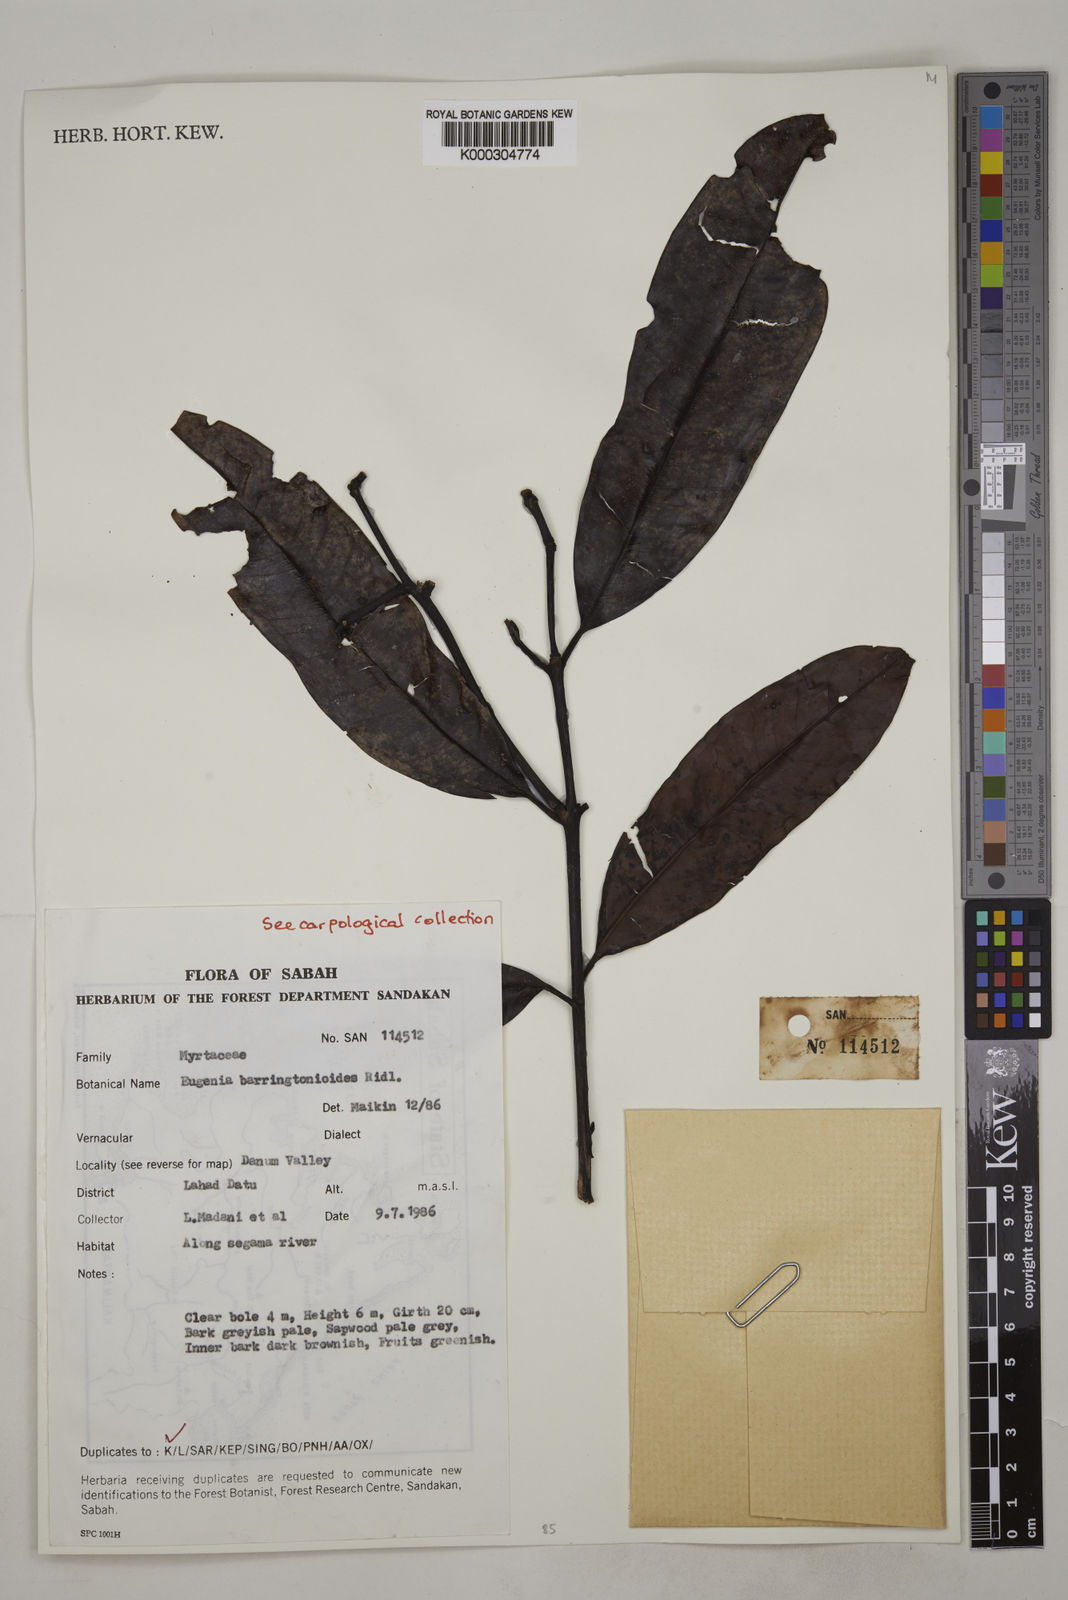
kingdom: Plantae
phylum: Tracheophyta
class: Magnoliopsida
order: Myrtales
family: Myrtaceae
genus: Syzygium
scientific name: Syzygium barringtonioides
